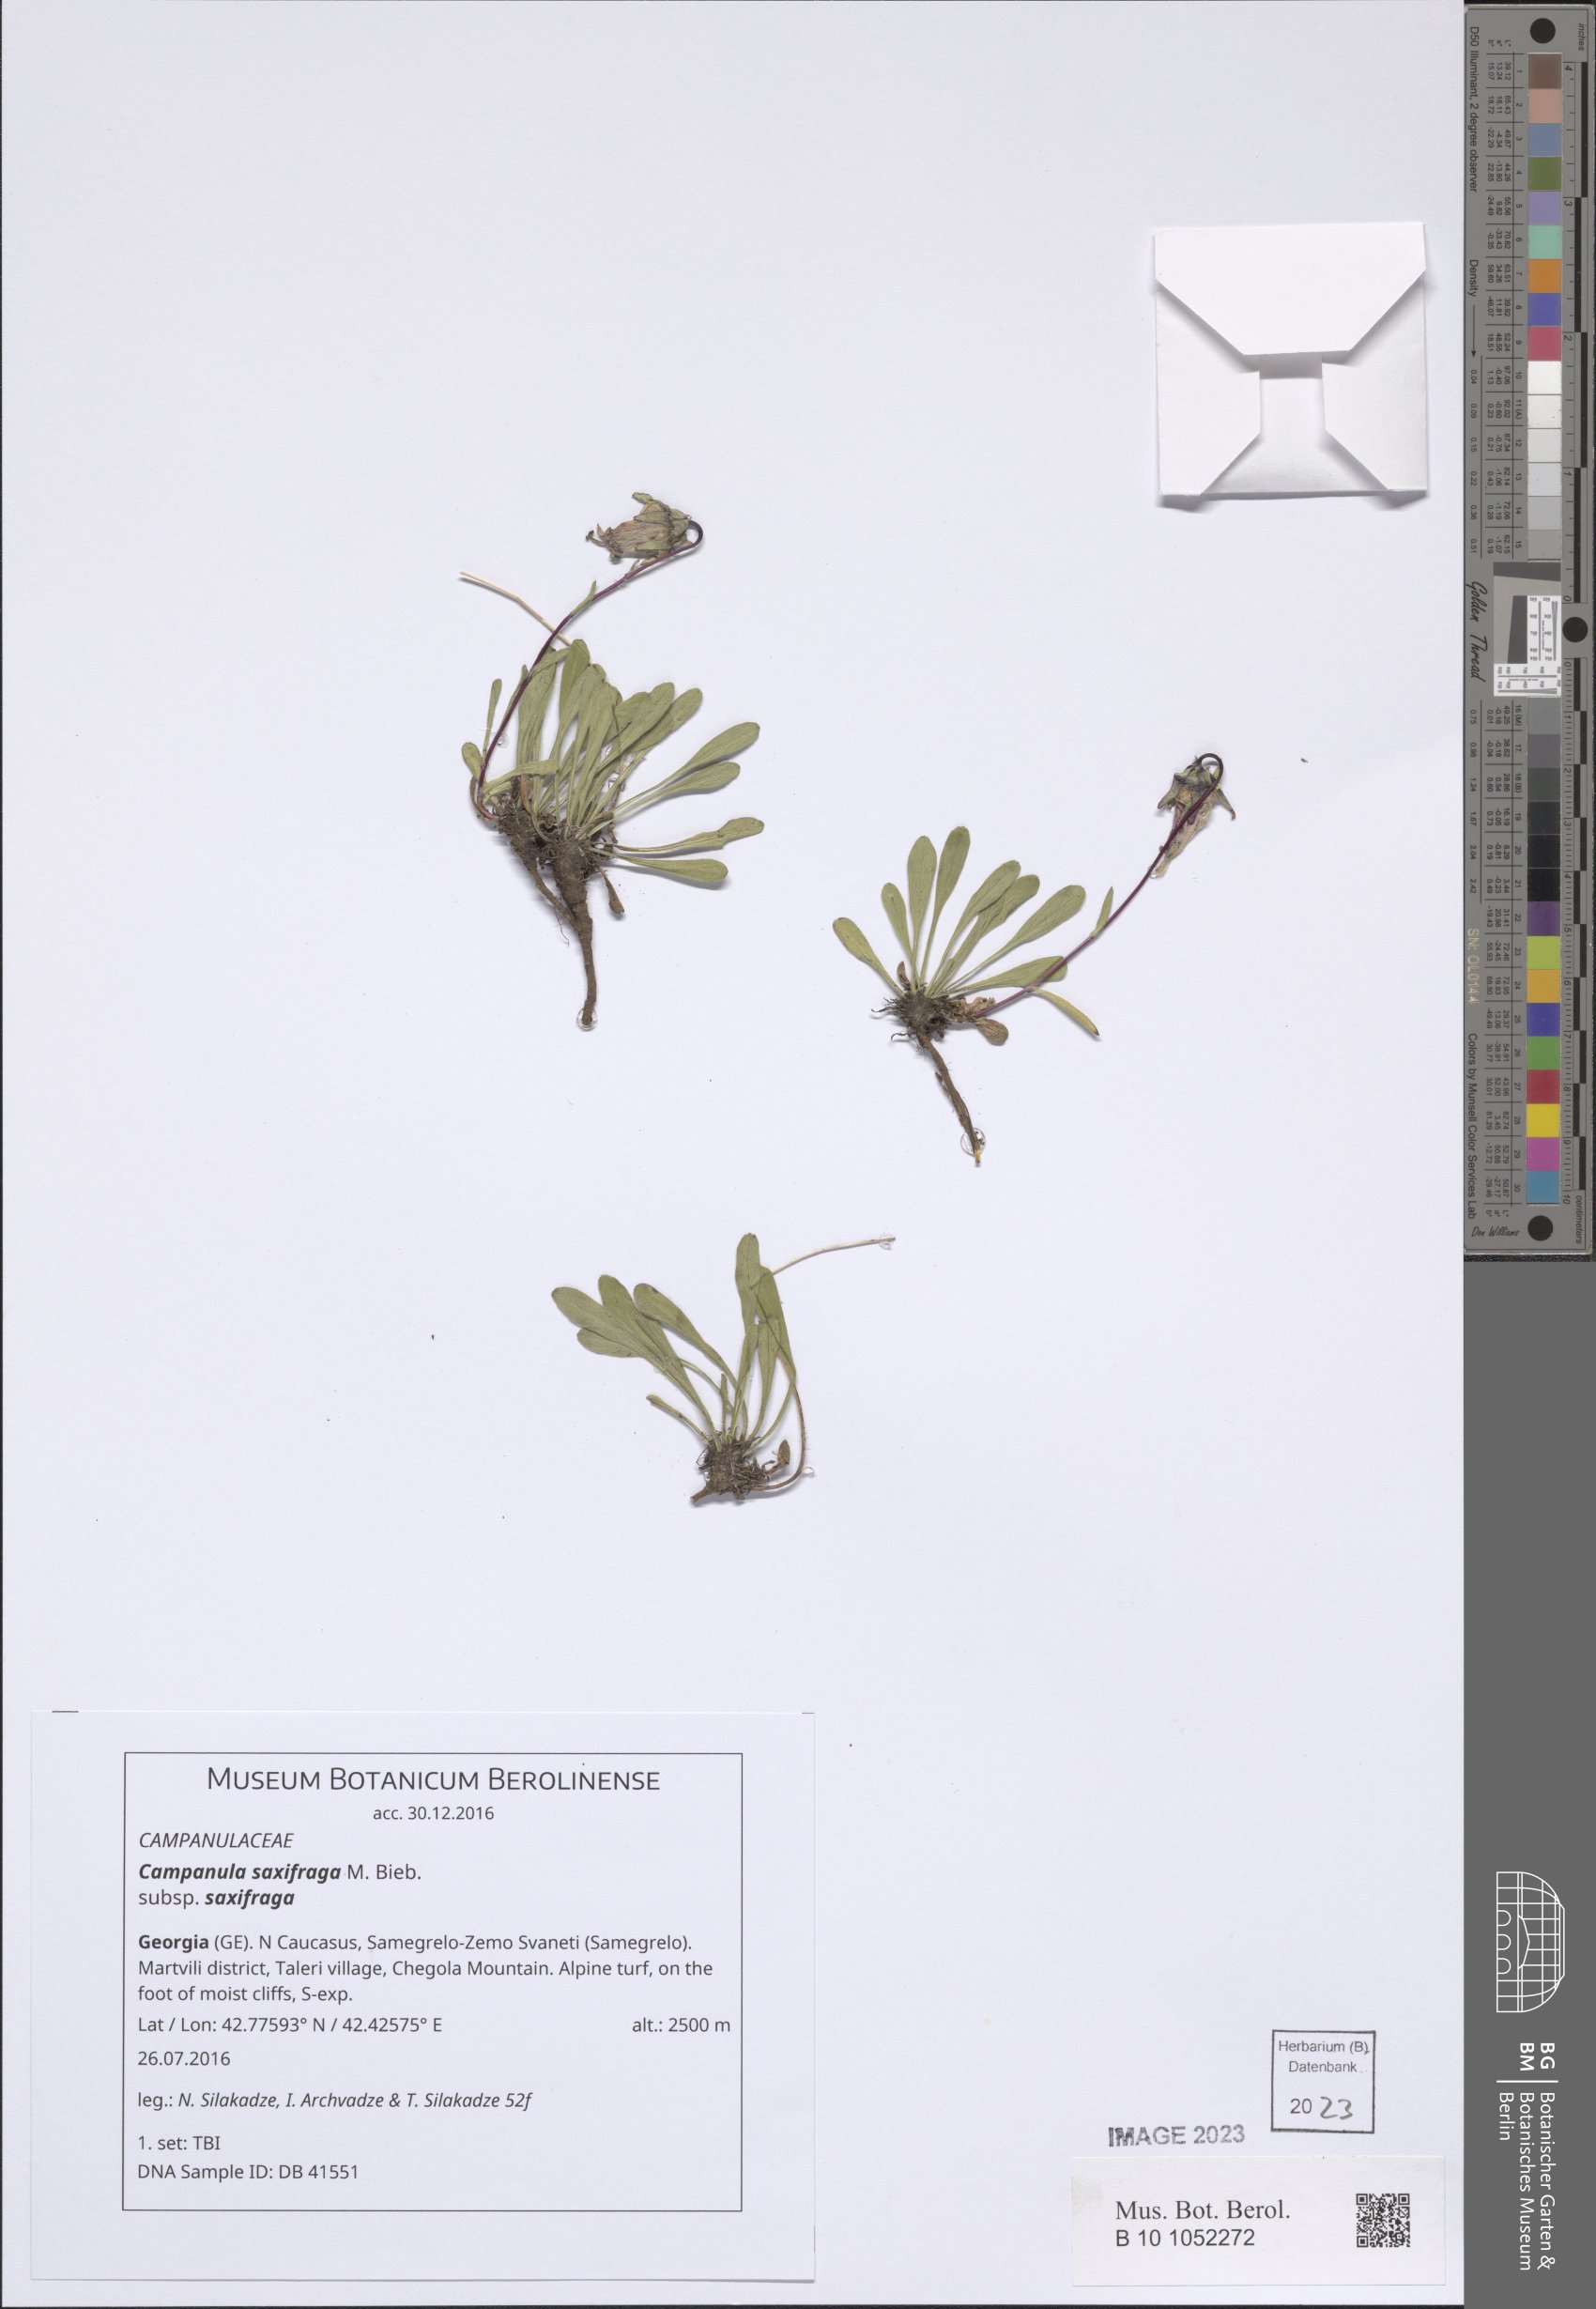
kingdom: Plantae
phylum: Tracheophyta
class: Magnoliopsida
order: Asterales
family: Campanulaceae
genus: Campanula
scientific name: Campanula saxifraga
